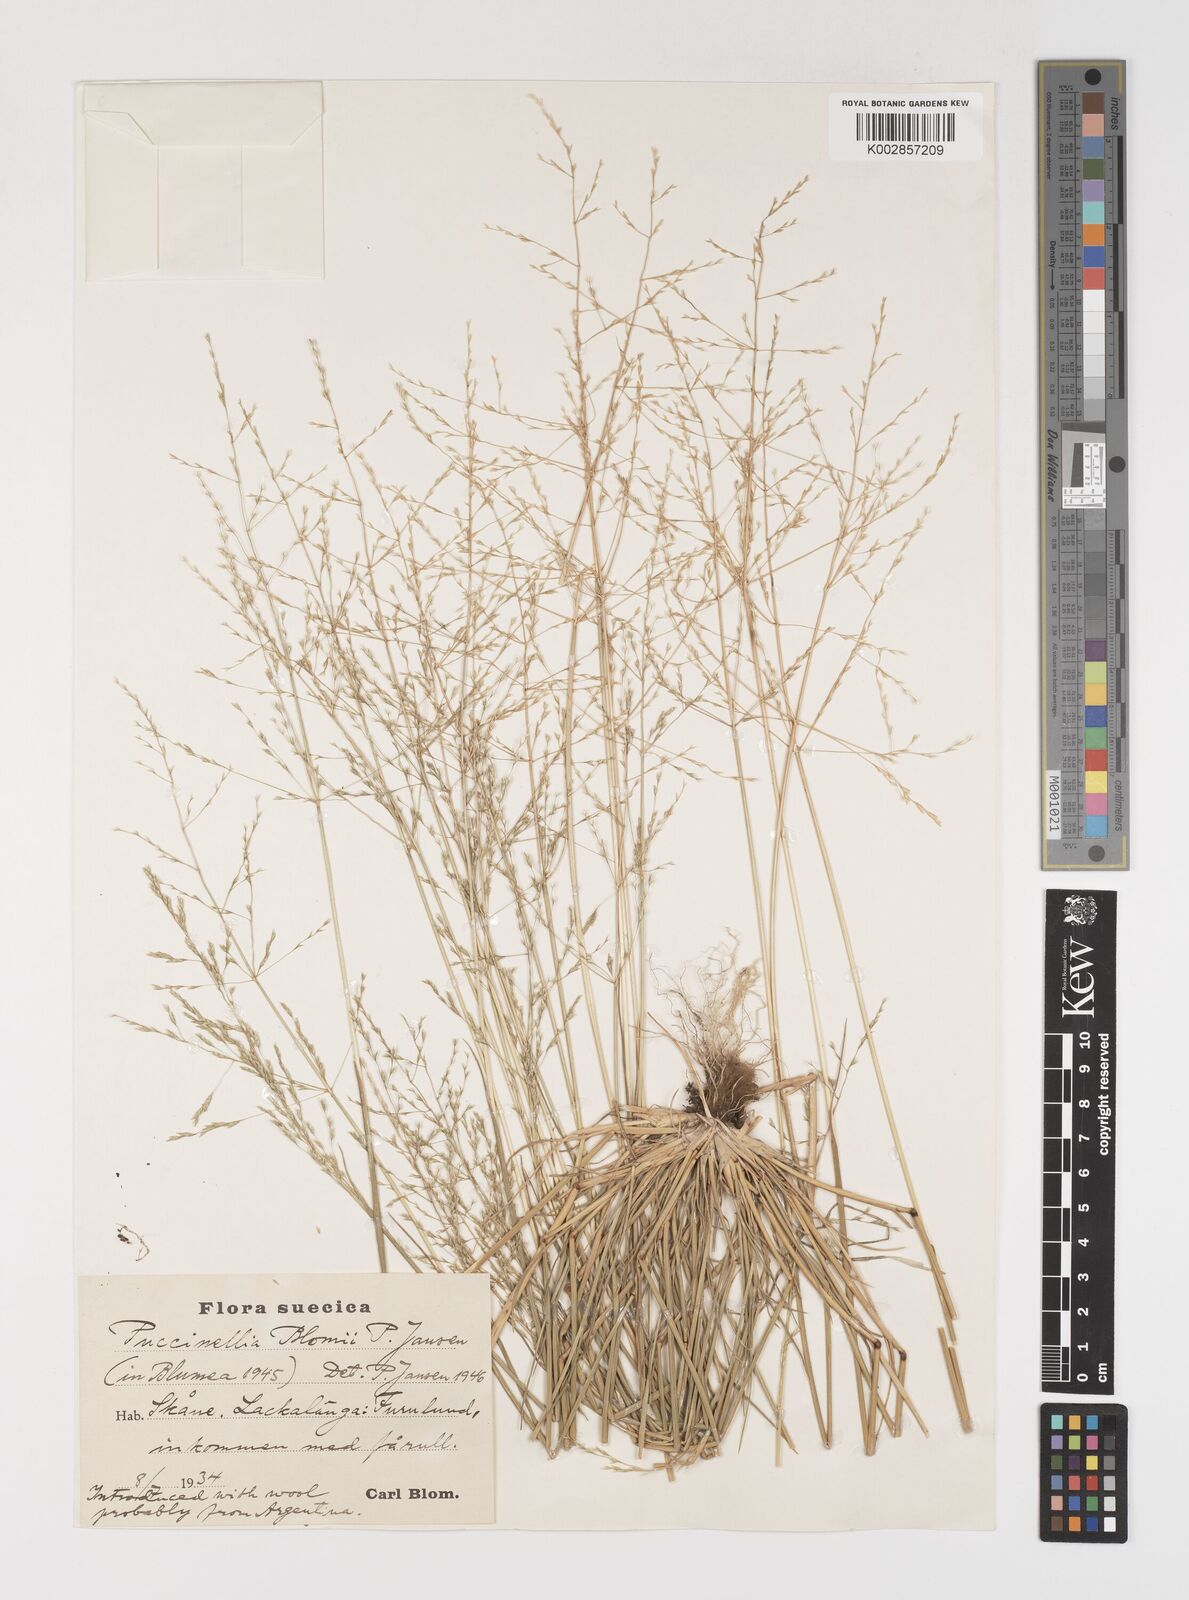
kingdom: Plantae
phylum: Tracheophyta
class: Liliopsida
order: Poales
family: Poaceae
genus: Puccinellia
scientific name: Puccinellia mendozina
